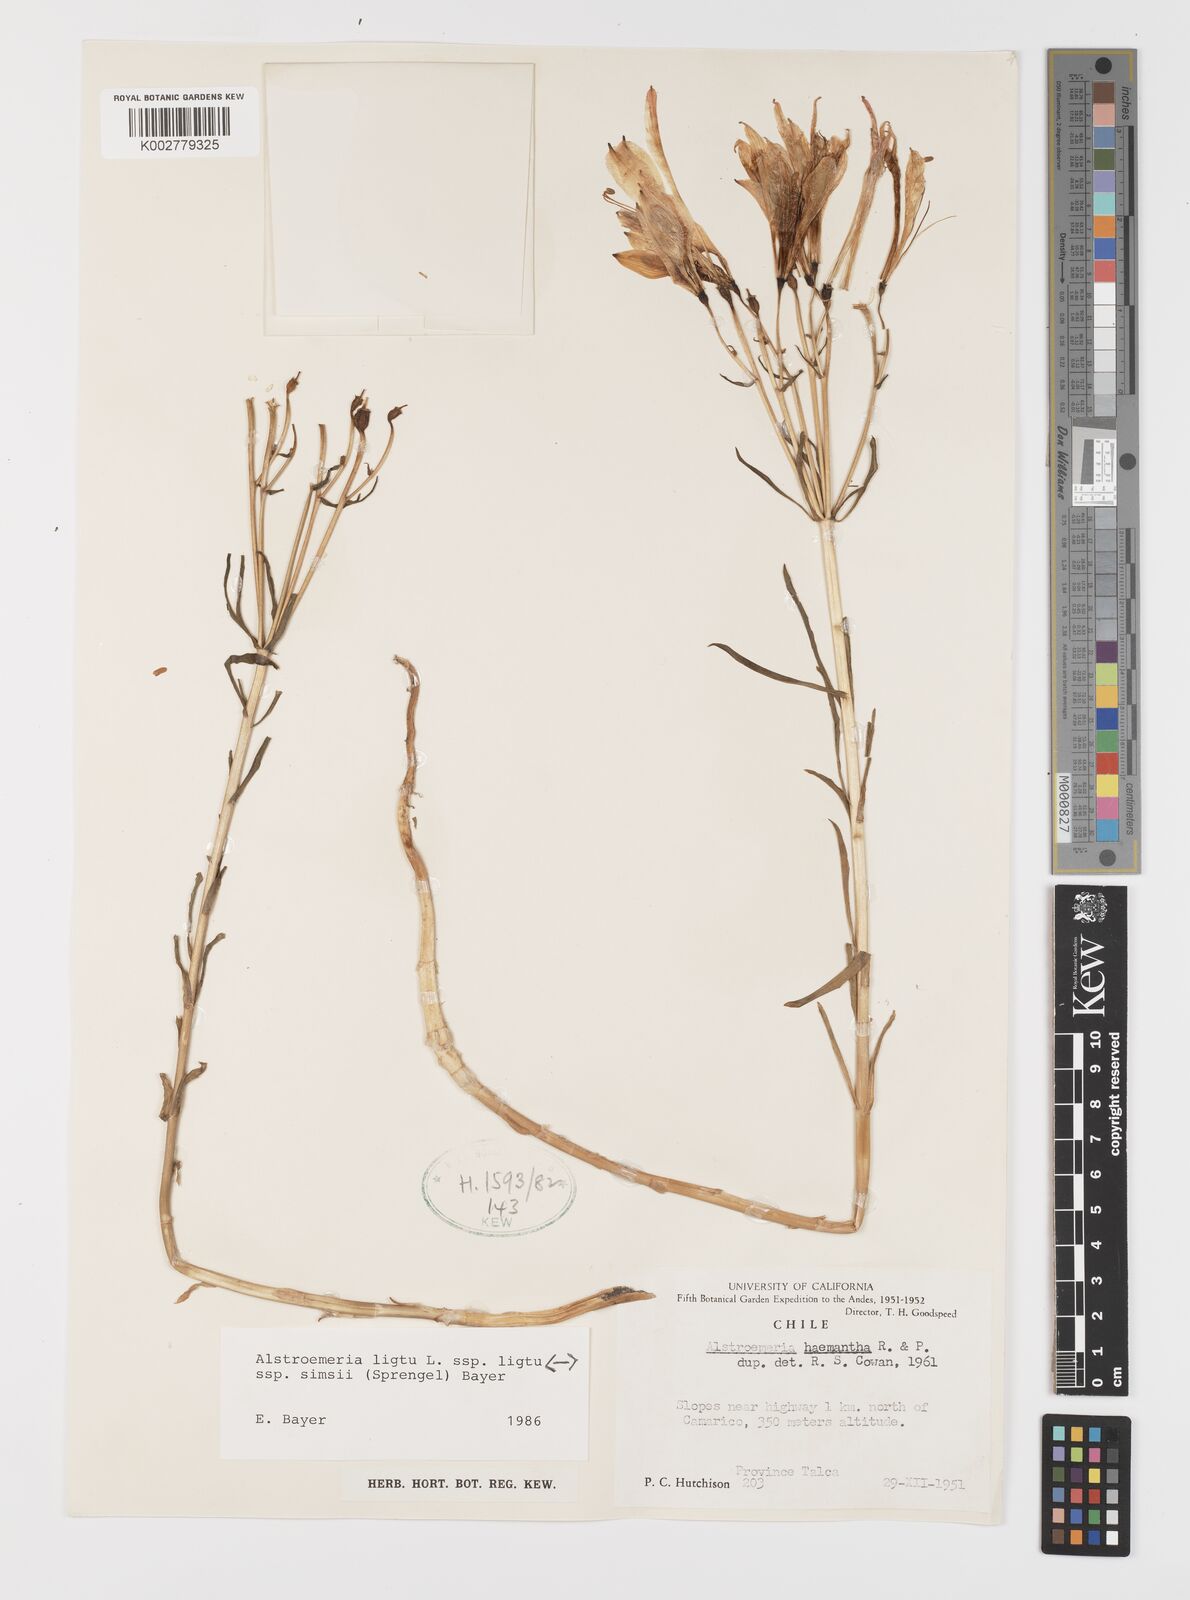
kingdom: Plantae
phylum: Tracheophyta
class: Liliopsida
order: Liliales
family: Alstroemeriaceae
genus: Alstroemeria
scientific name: Alstroemeria ligtu
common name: St. martin's-flower
